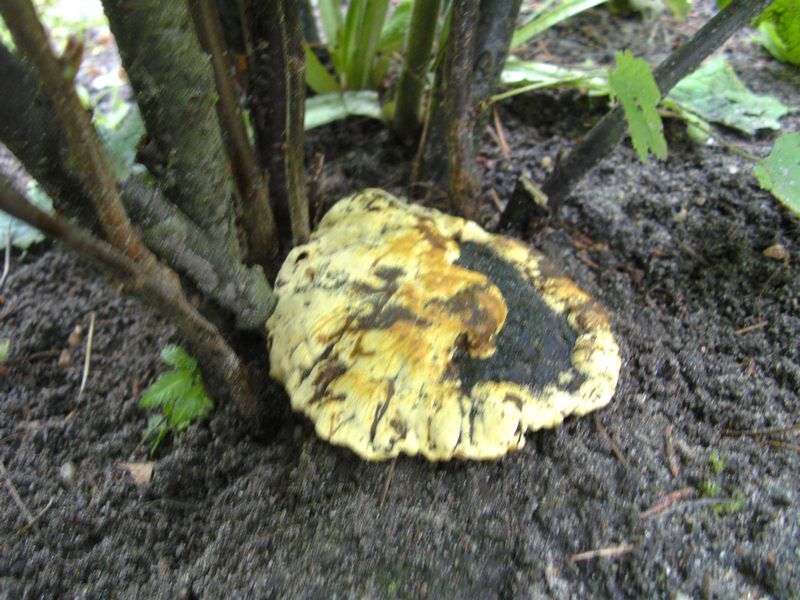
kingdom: Fungi
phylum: Basidiomycota
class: Agaricomycetes
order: Hymenochaetales
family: Hymenochaetaceae
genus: Phylloporia
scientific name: Phylloporia ribis
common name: ribs-ildporesvamp
